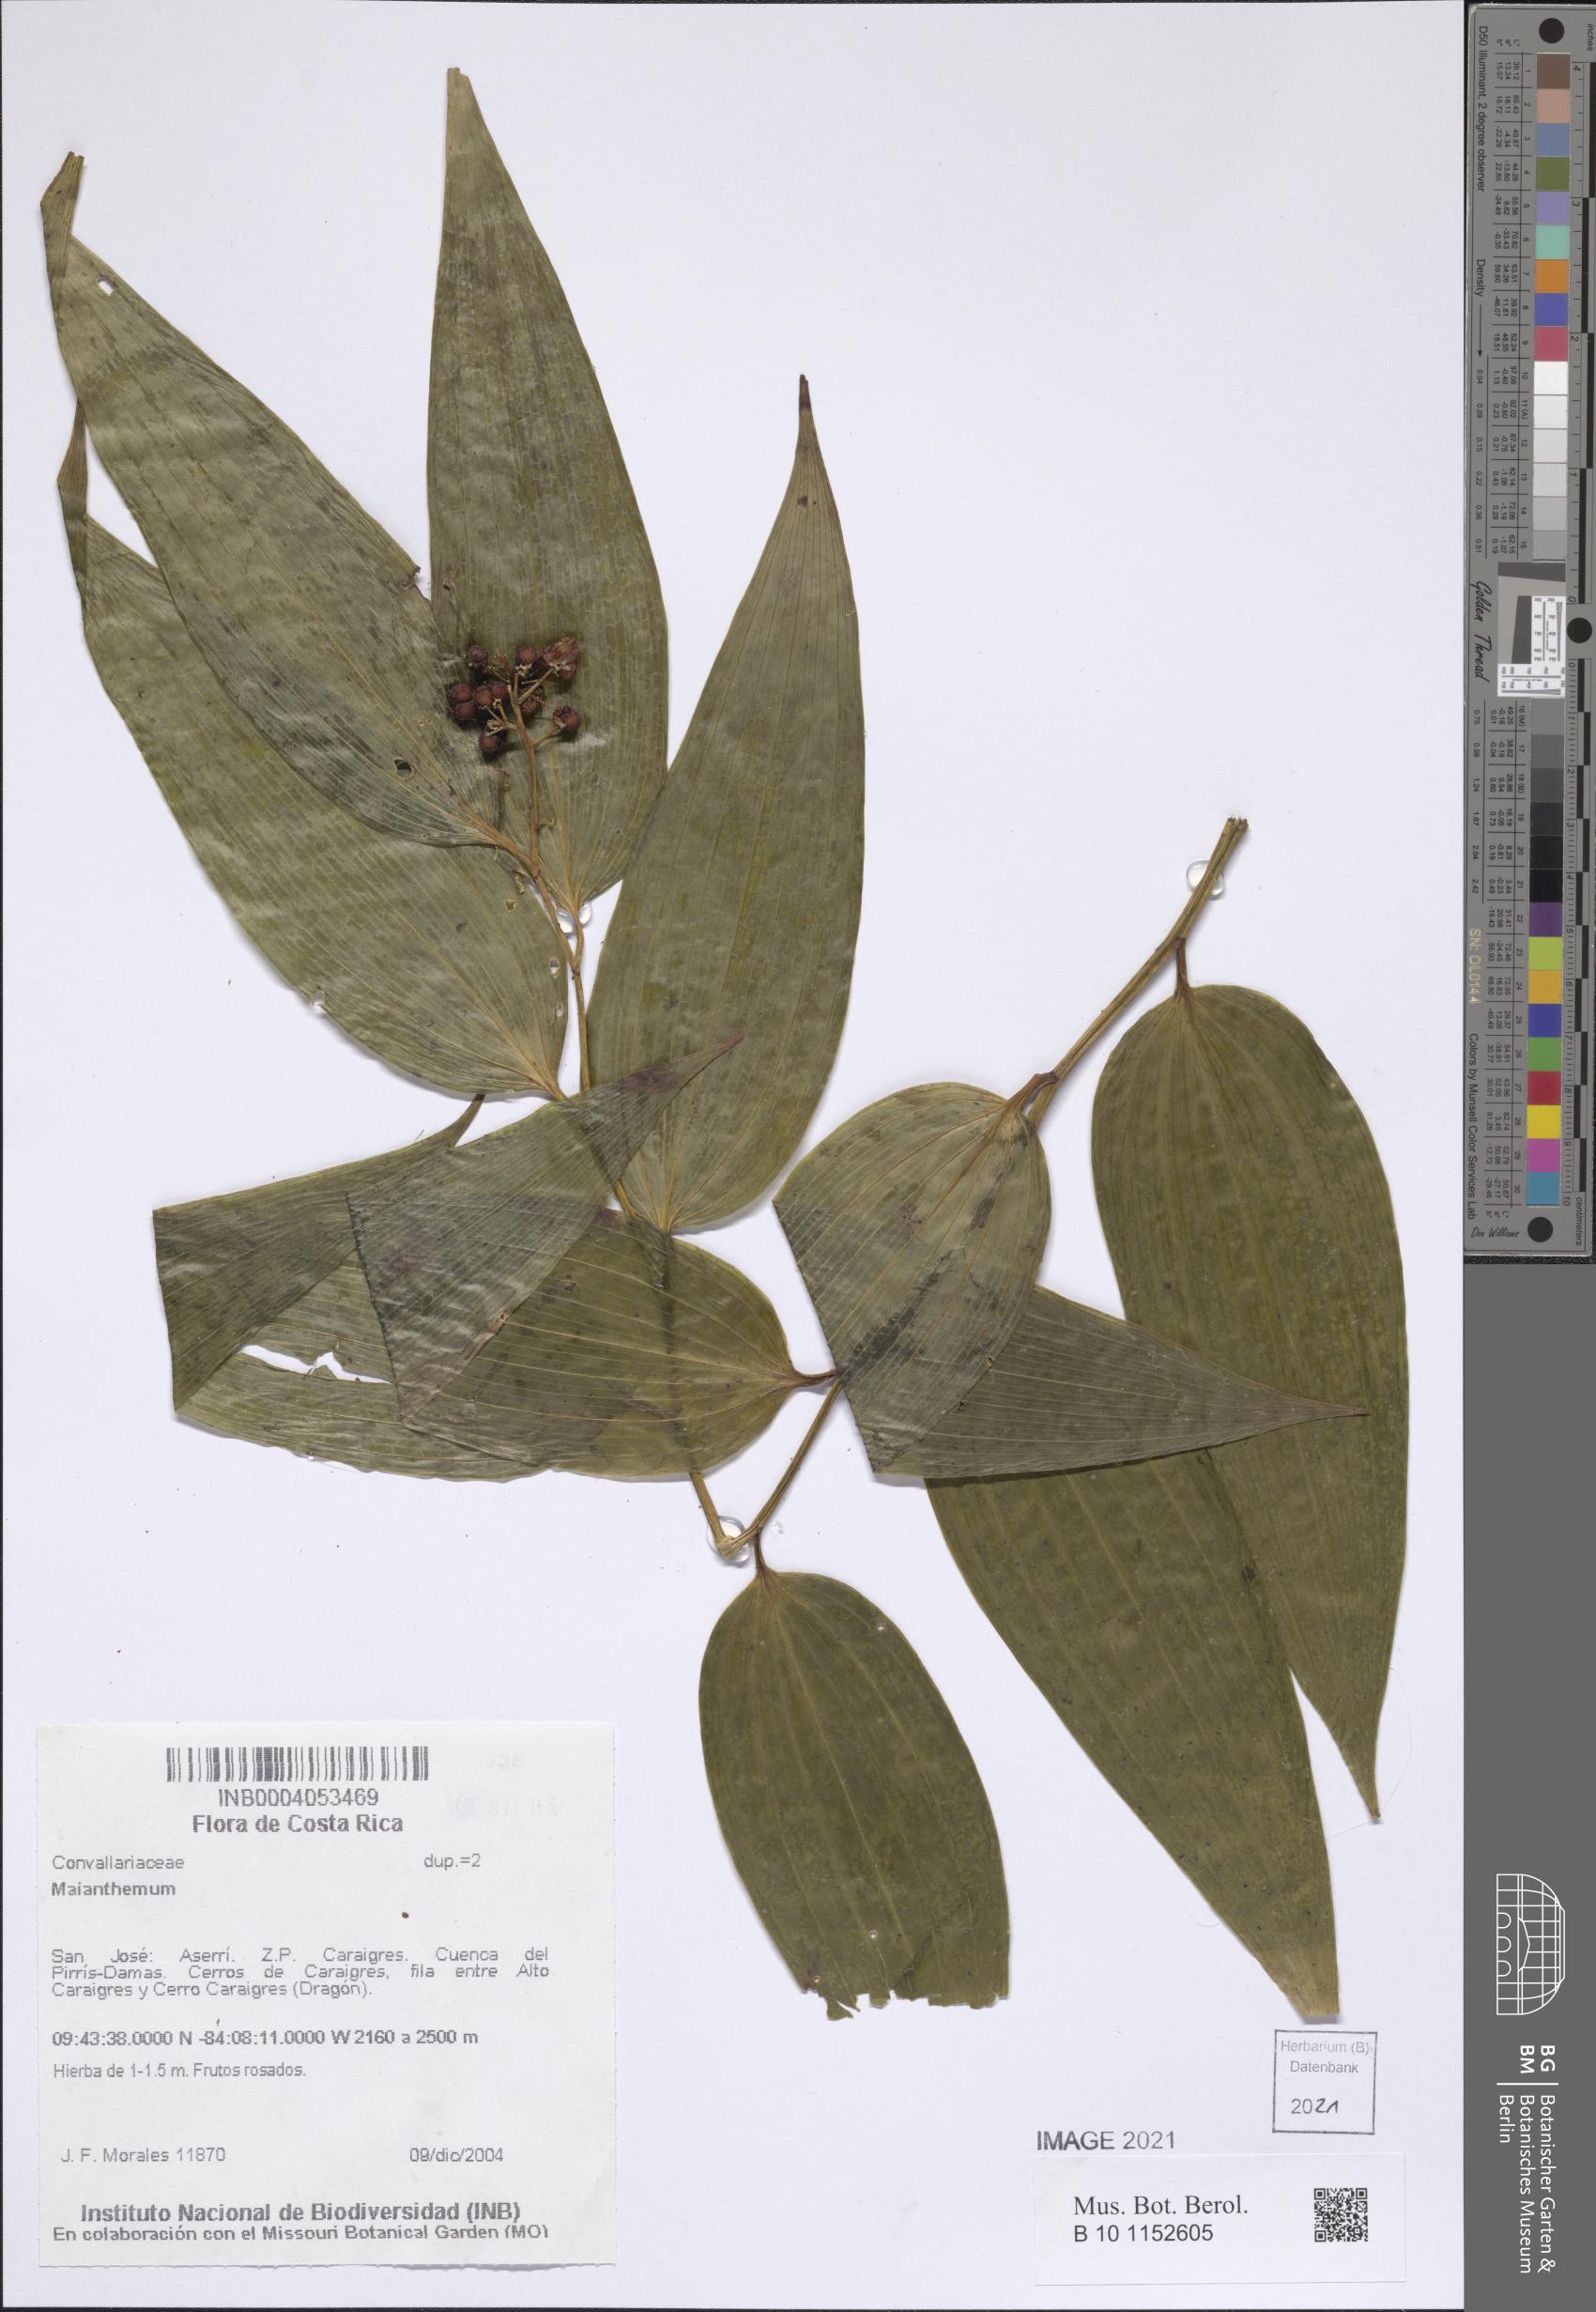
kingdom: Plantae
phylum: Tracheophyta
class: Liliopsida
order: Asparagales
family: Asparagaceae
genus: Maianthemum
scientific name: Maianthemum
